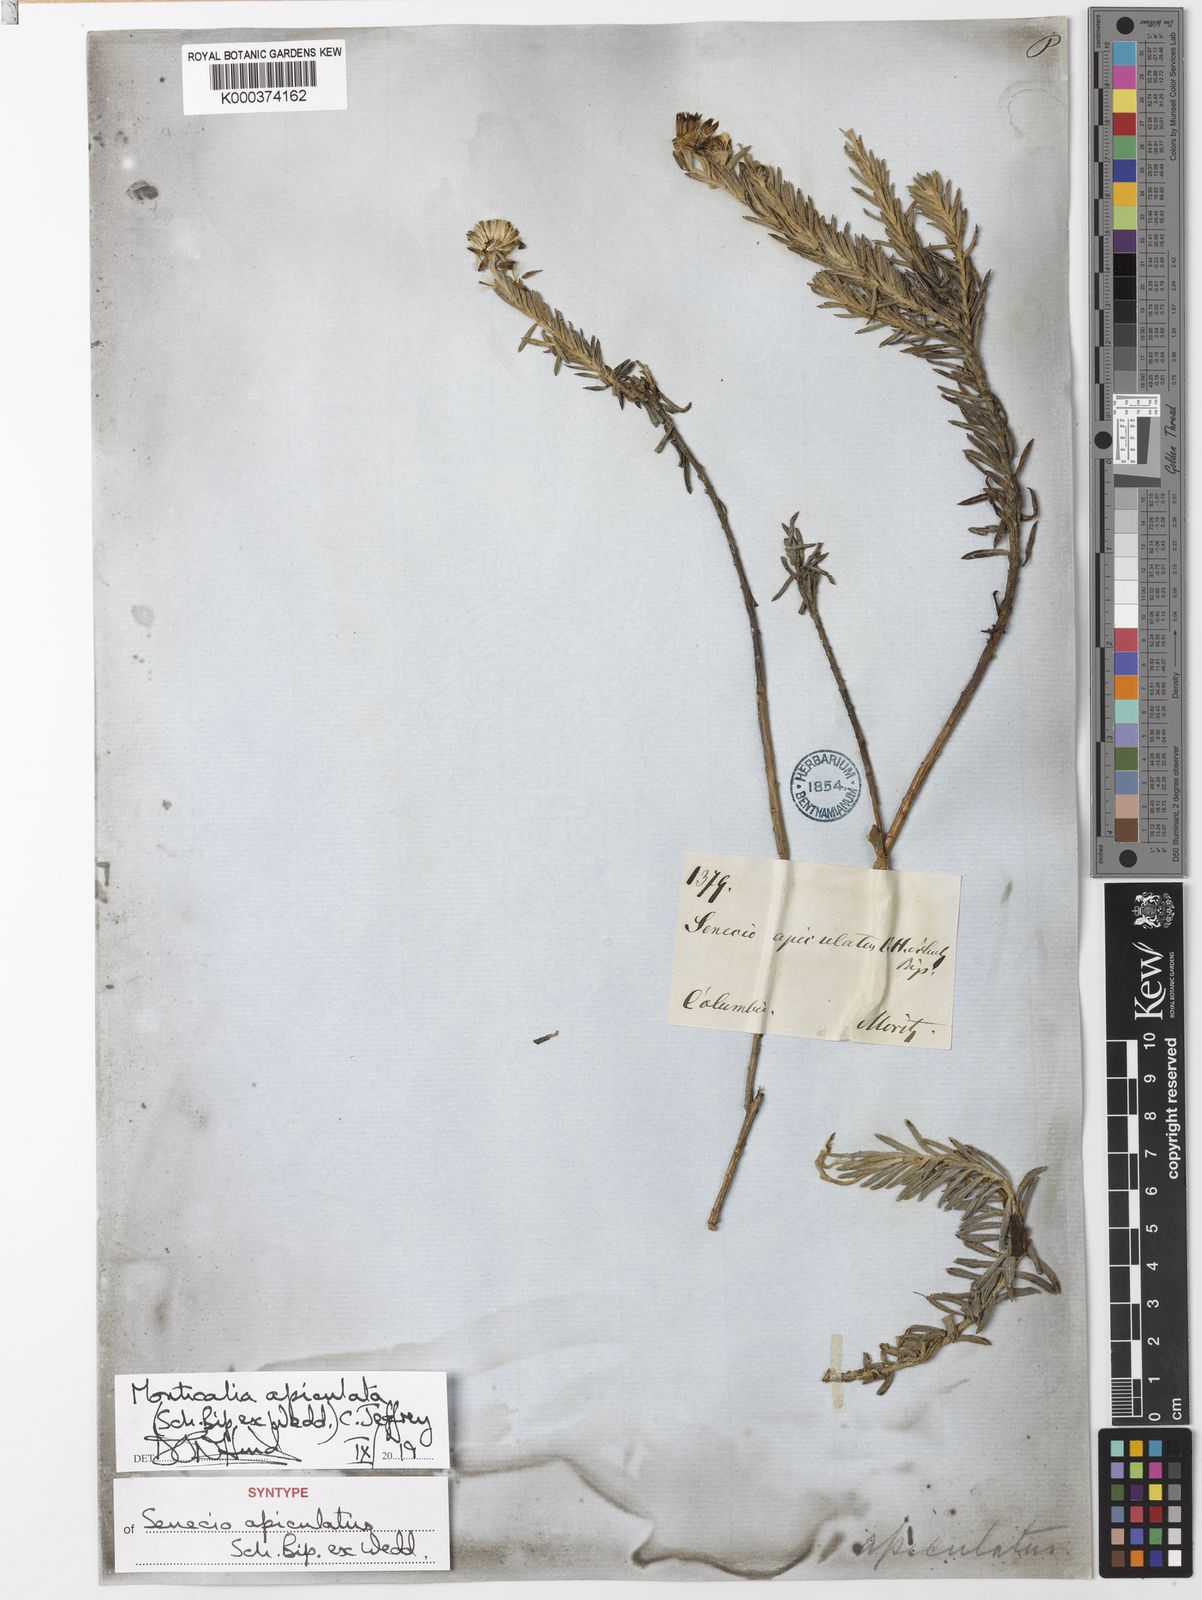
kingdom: Plantae
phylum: Tracheophyta
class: Magnoliopsida
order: Asterales
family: Asteraceae
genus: Monticalia
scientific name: Monticalia apiculata
